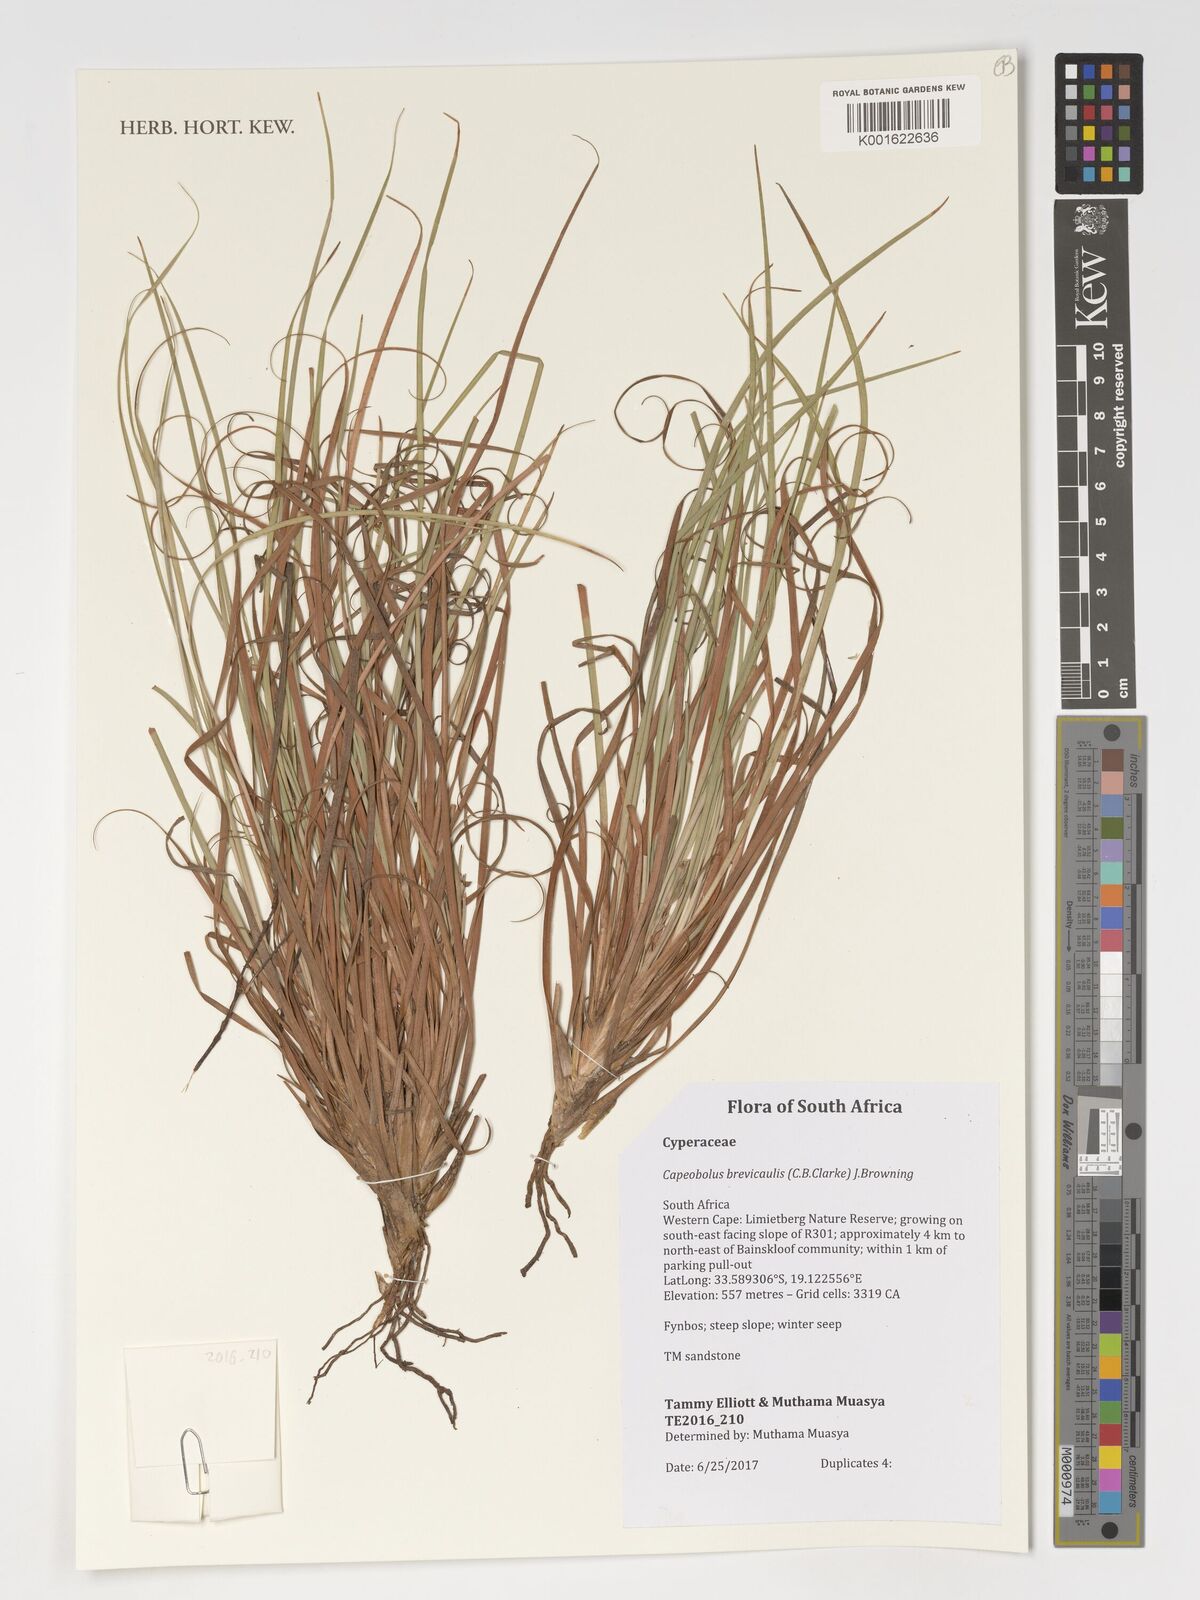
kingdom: Plantae
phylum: Tracheophyta
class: Liliopsida
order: Poales
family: Cyperaceae
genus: Capeobolus
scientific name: Capeobolus brevicaulis
